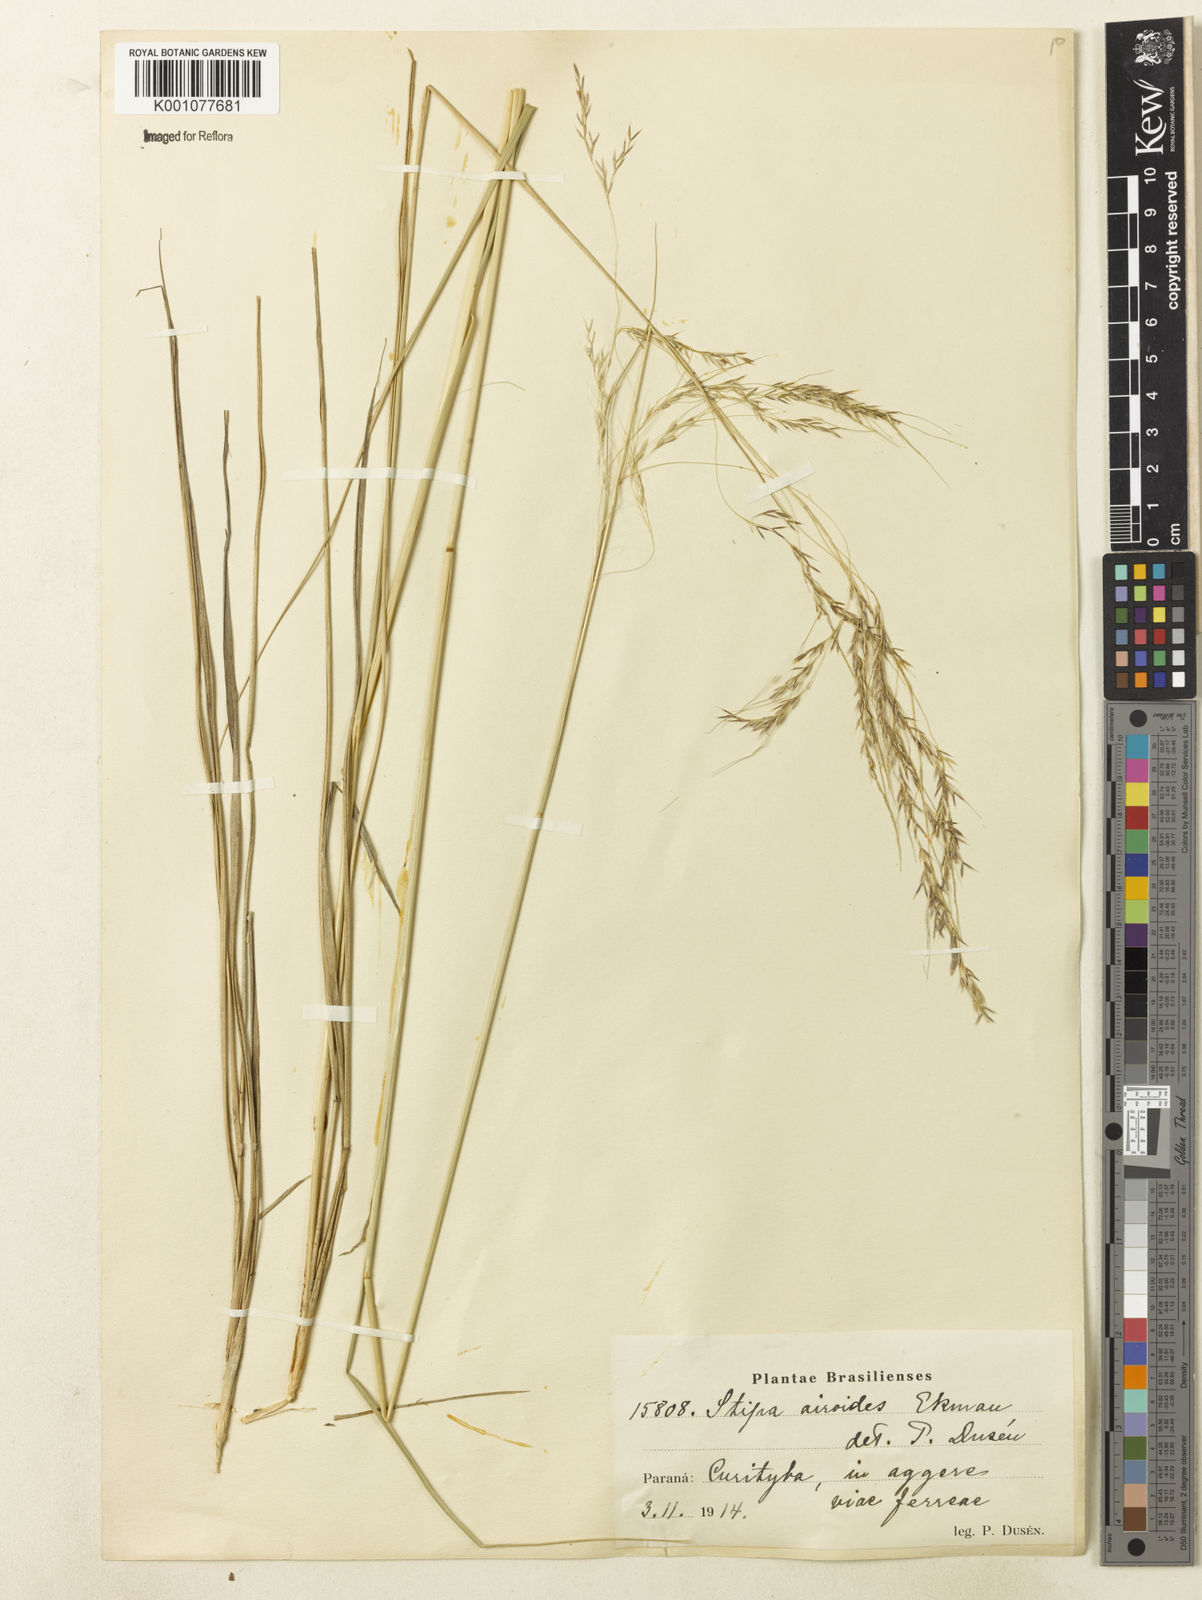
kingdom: Plantae
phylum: Tracheophyta
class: Liliopsida
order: Poales
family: Poaceae
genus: Jarava
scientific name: Jarava filifolia
